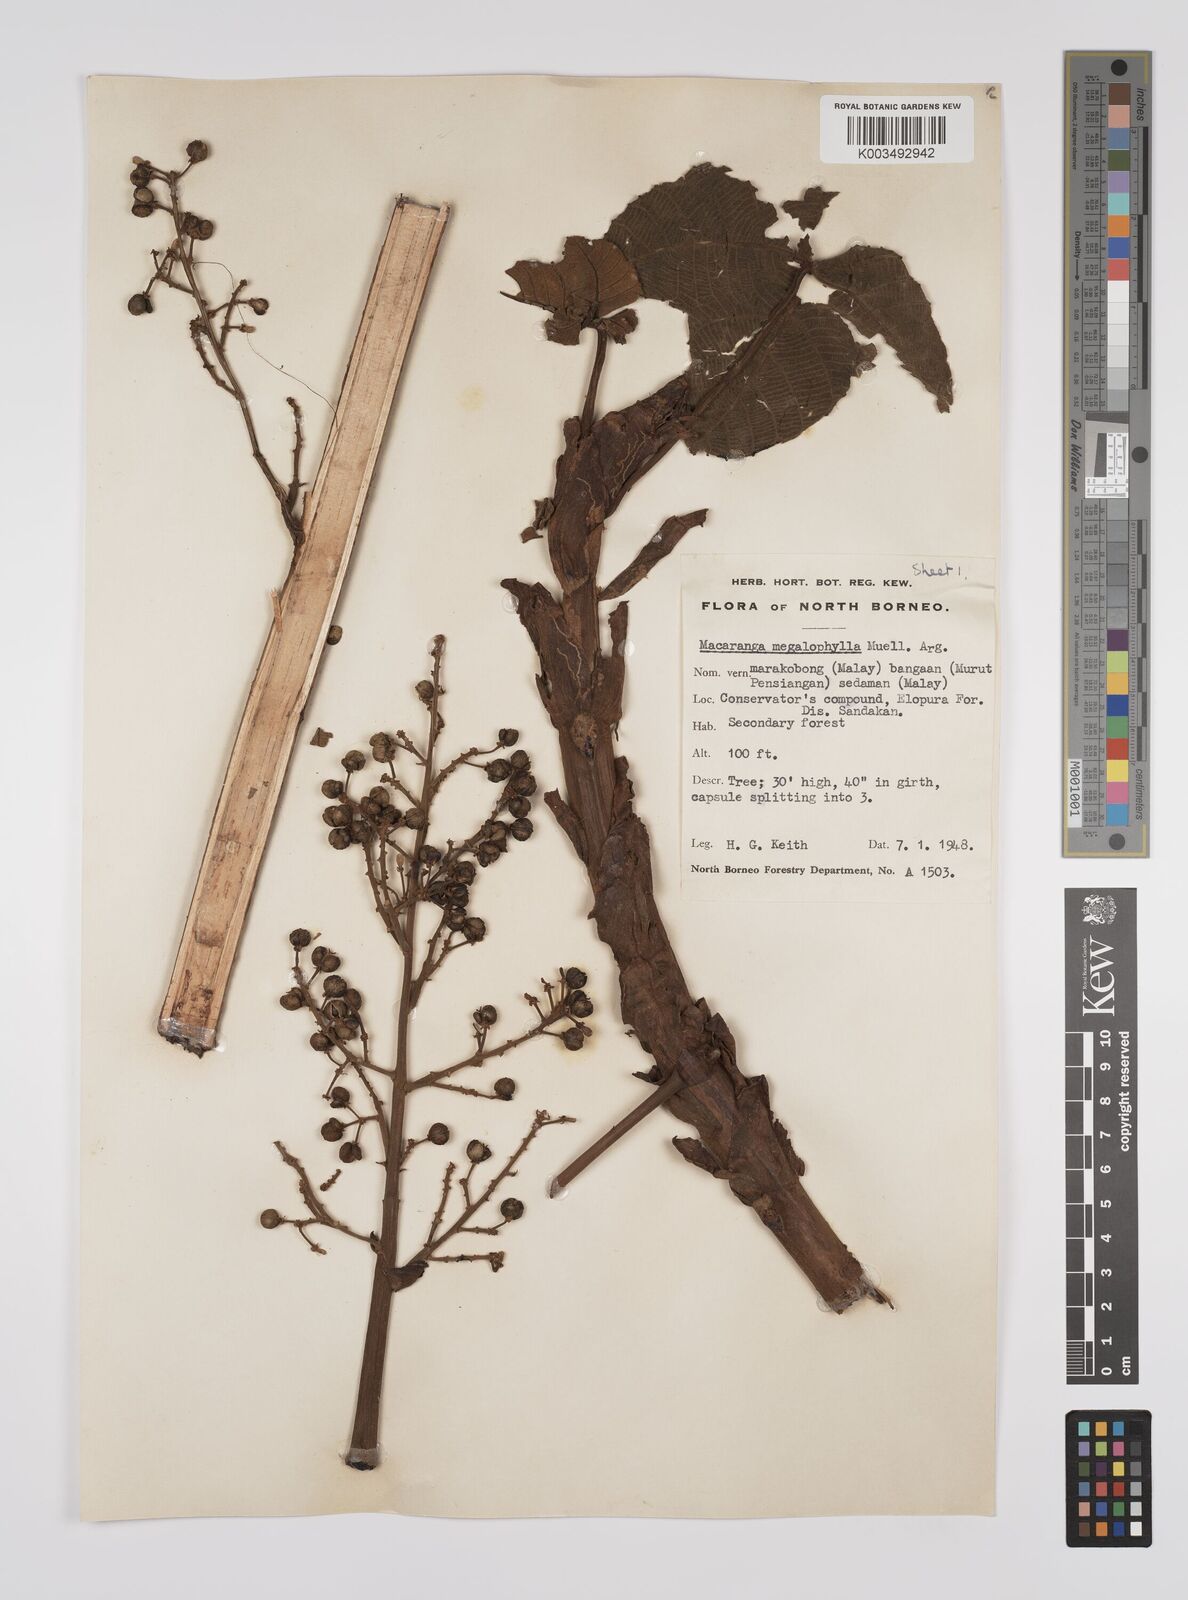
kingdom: Plantae
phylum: Tracheophyta
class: Magnoliopsida
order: Malpighiales
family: Euphorbiaceae
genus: Macaranga
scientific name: Macaranga gigantea
